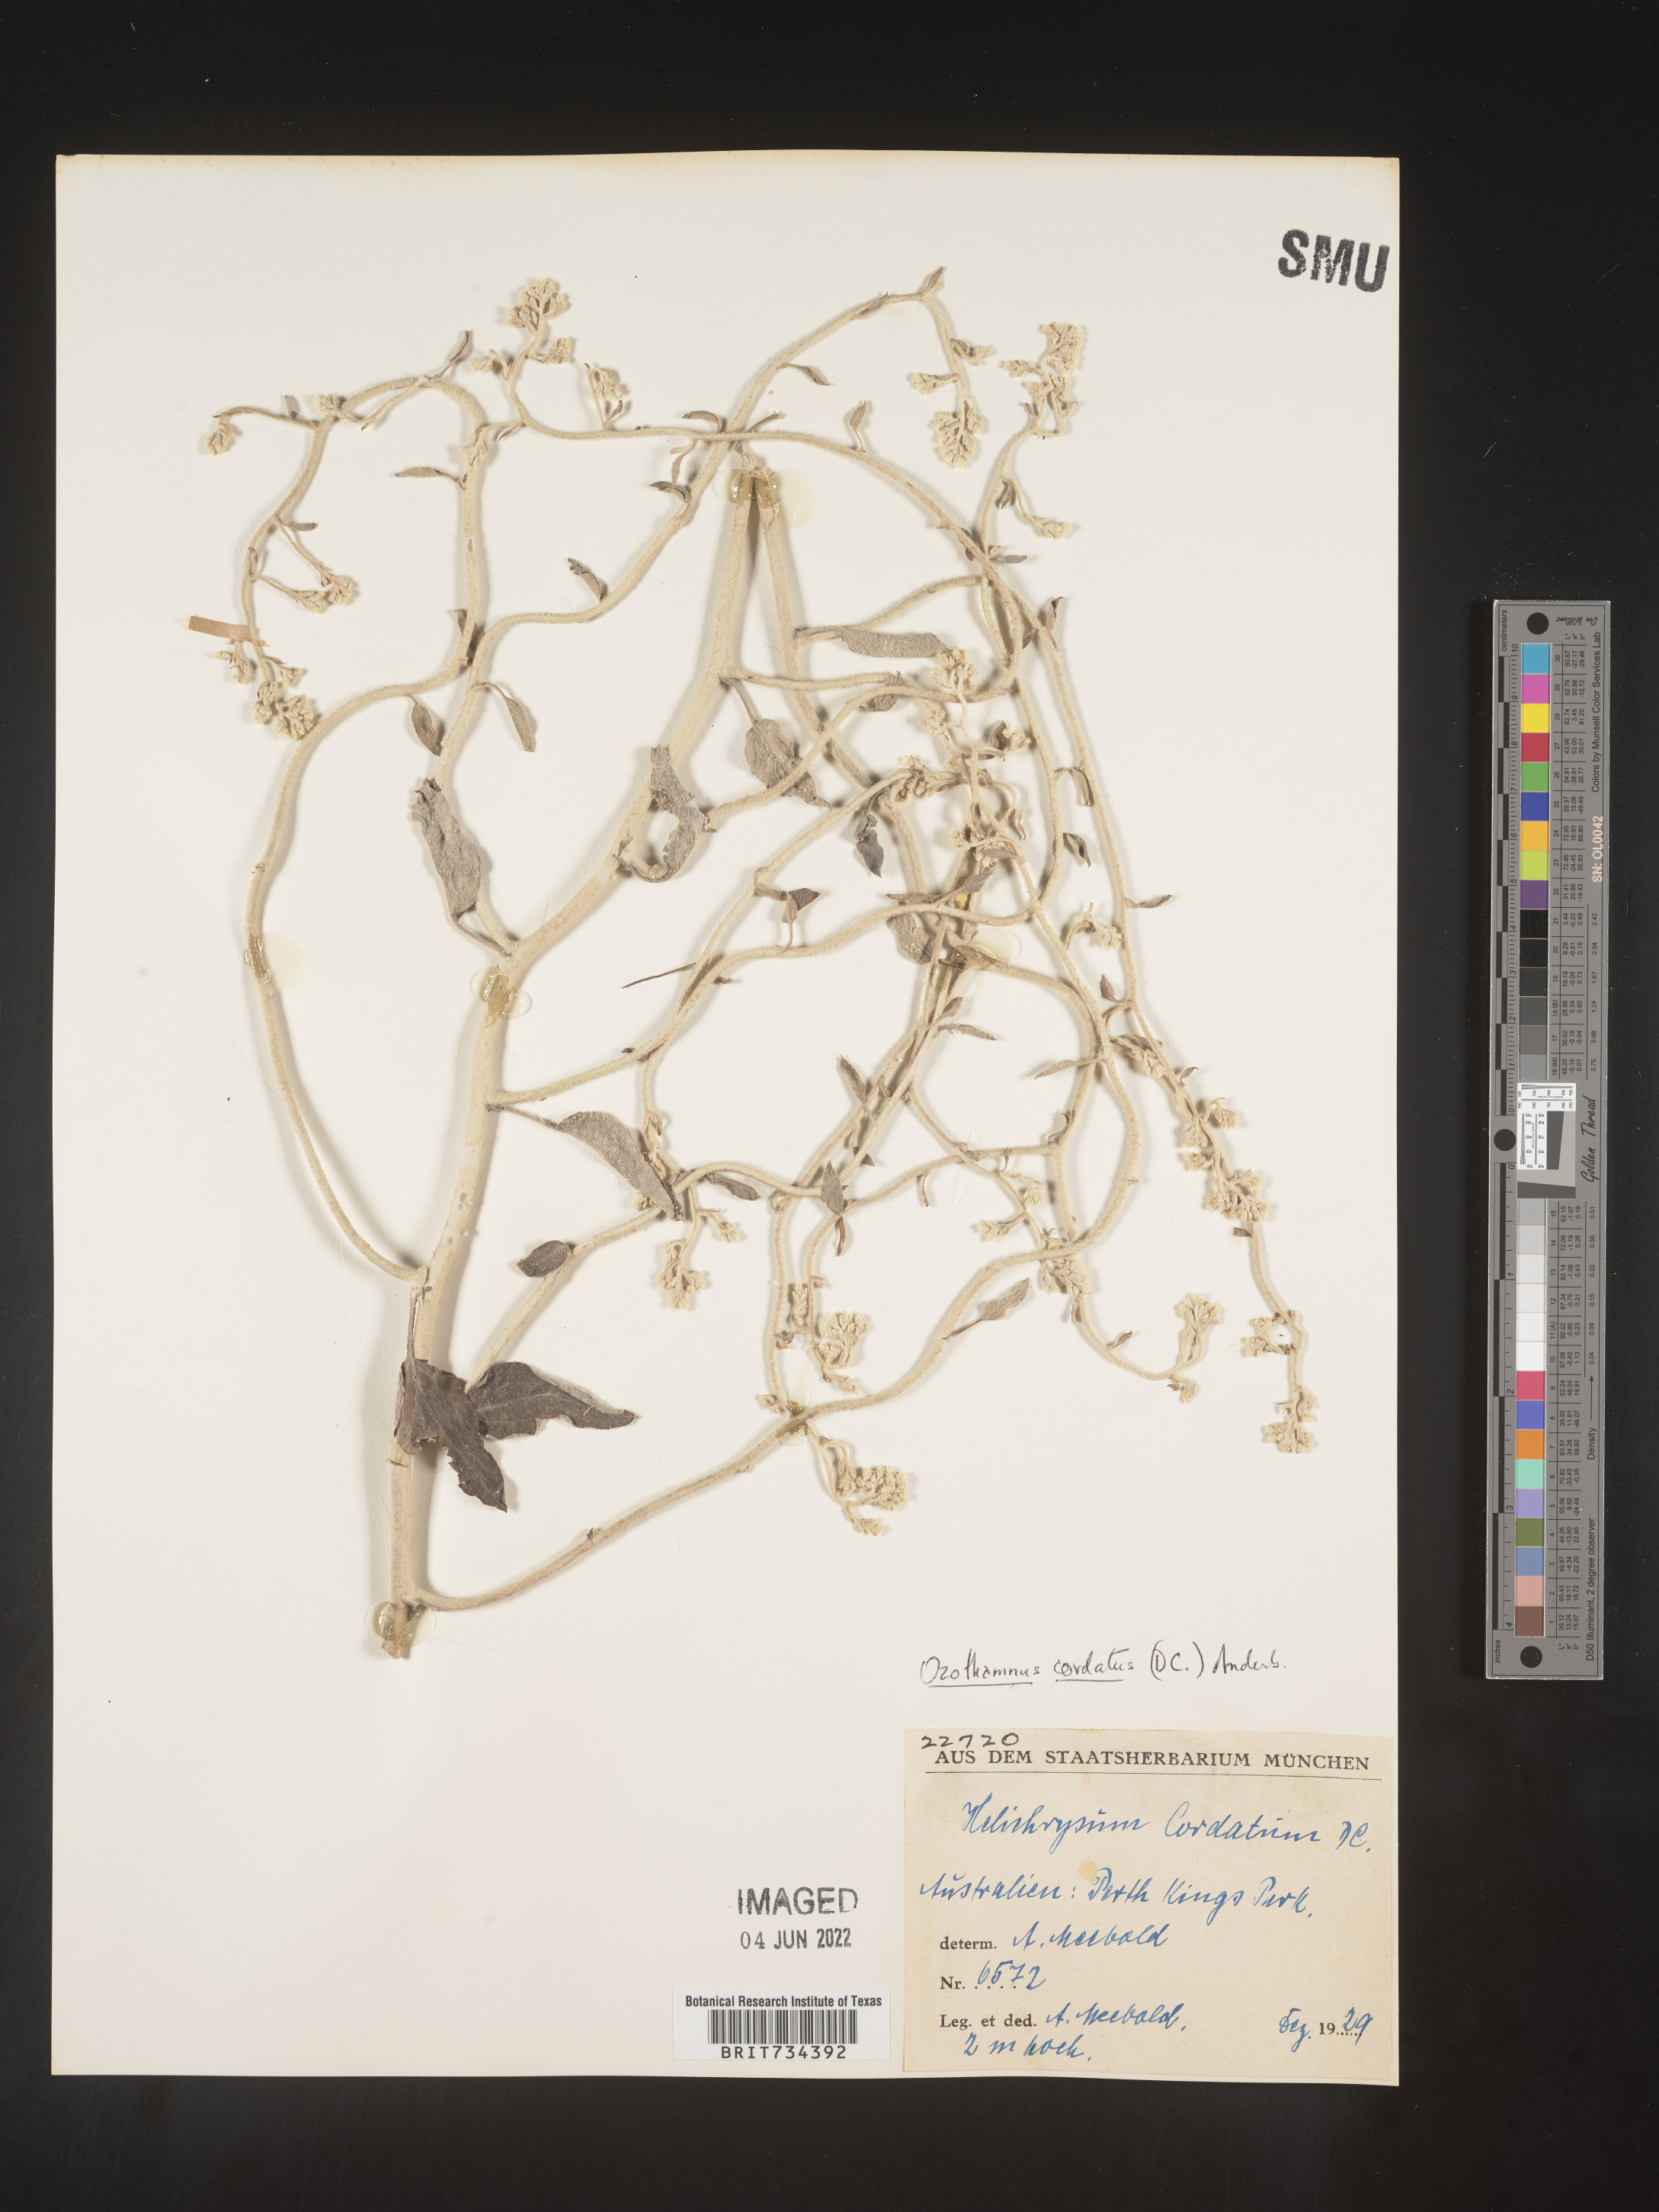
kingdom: Plantae
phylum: Tracheophyta
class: Magnoliopsida
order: Asterales
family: Asteraceae
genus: Ozothamnus
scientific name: Ozothamnus
